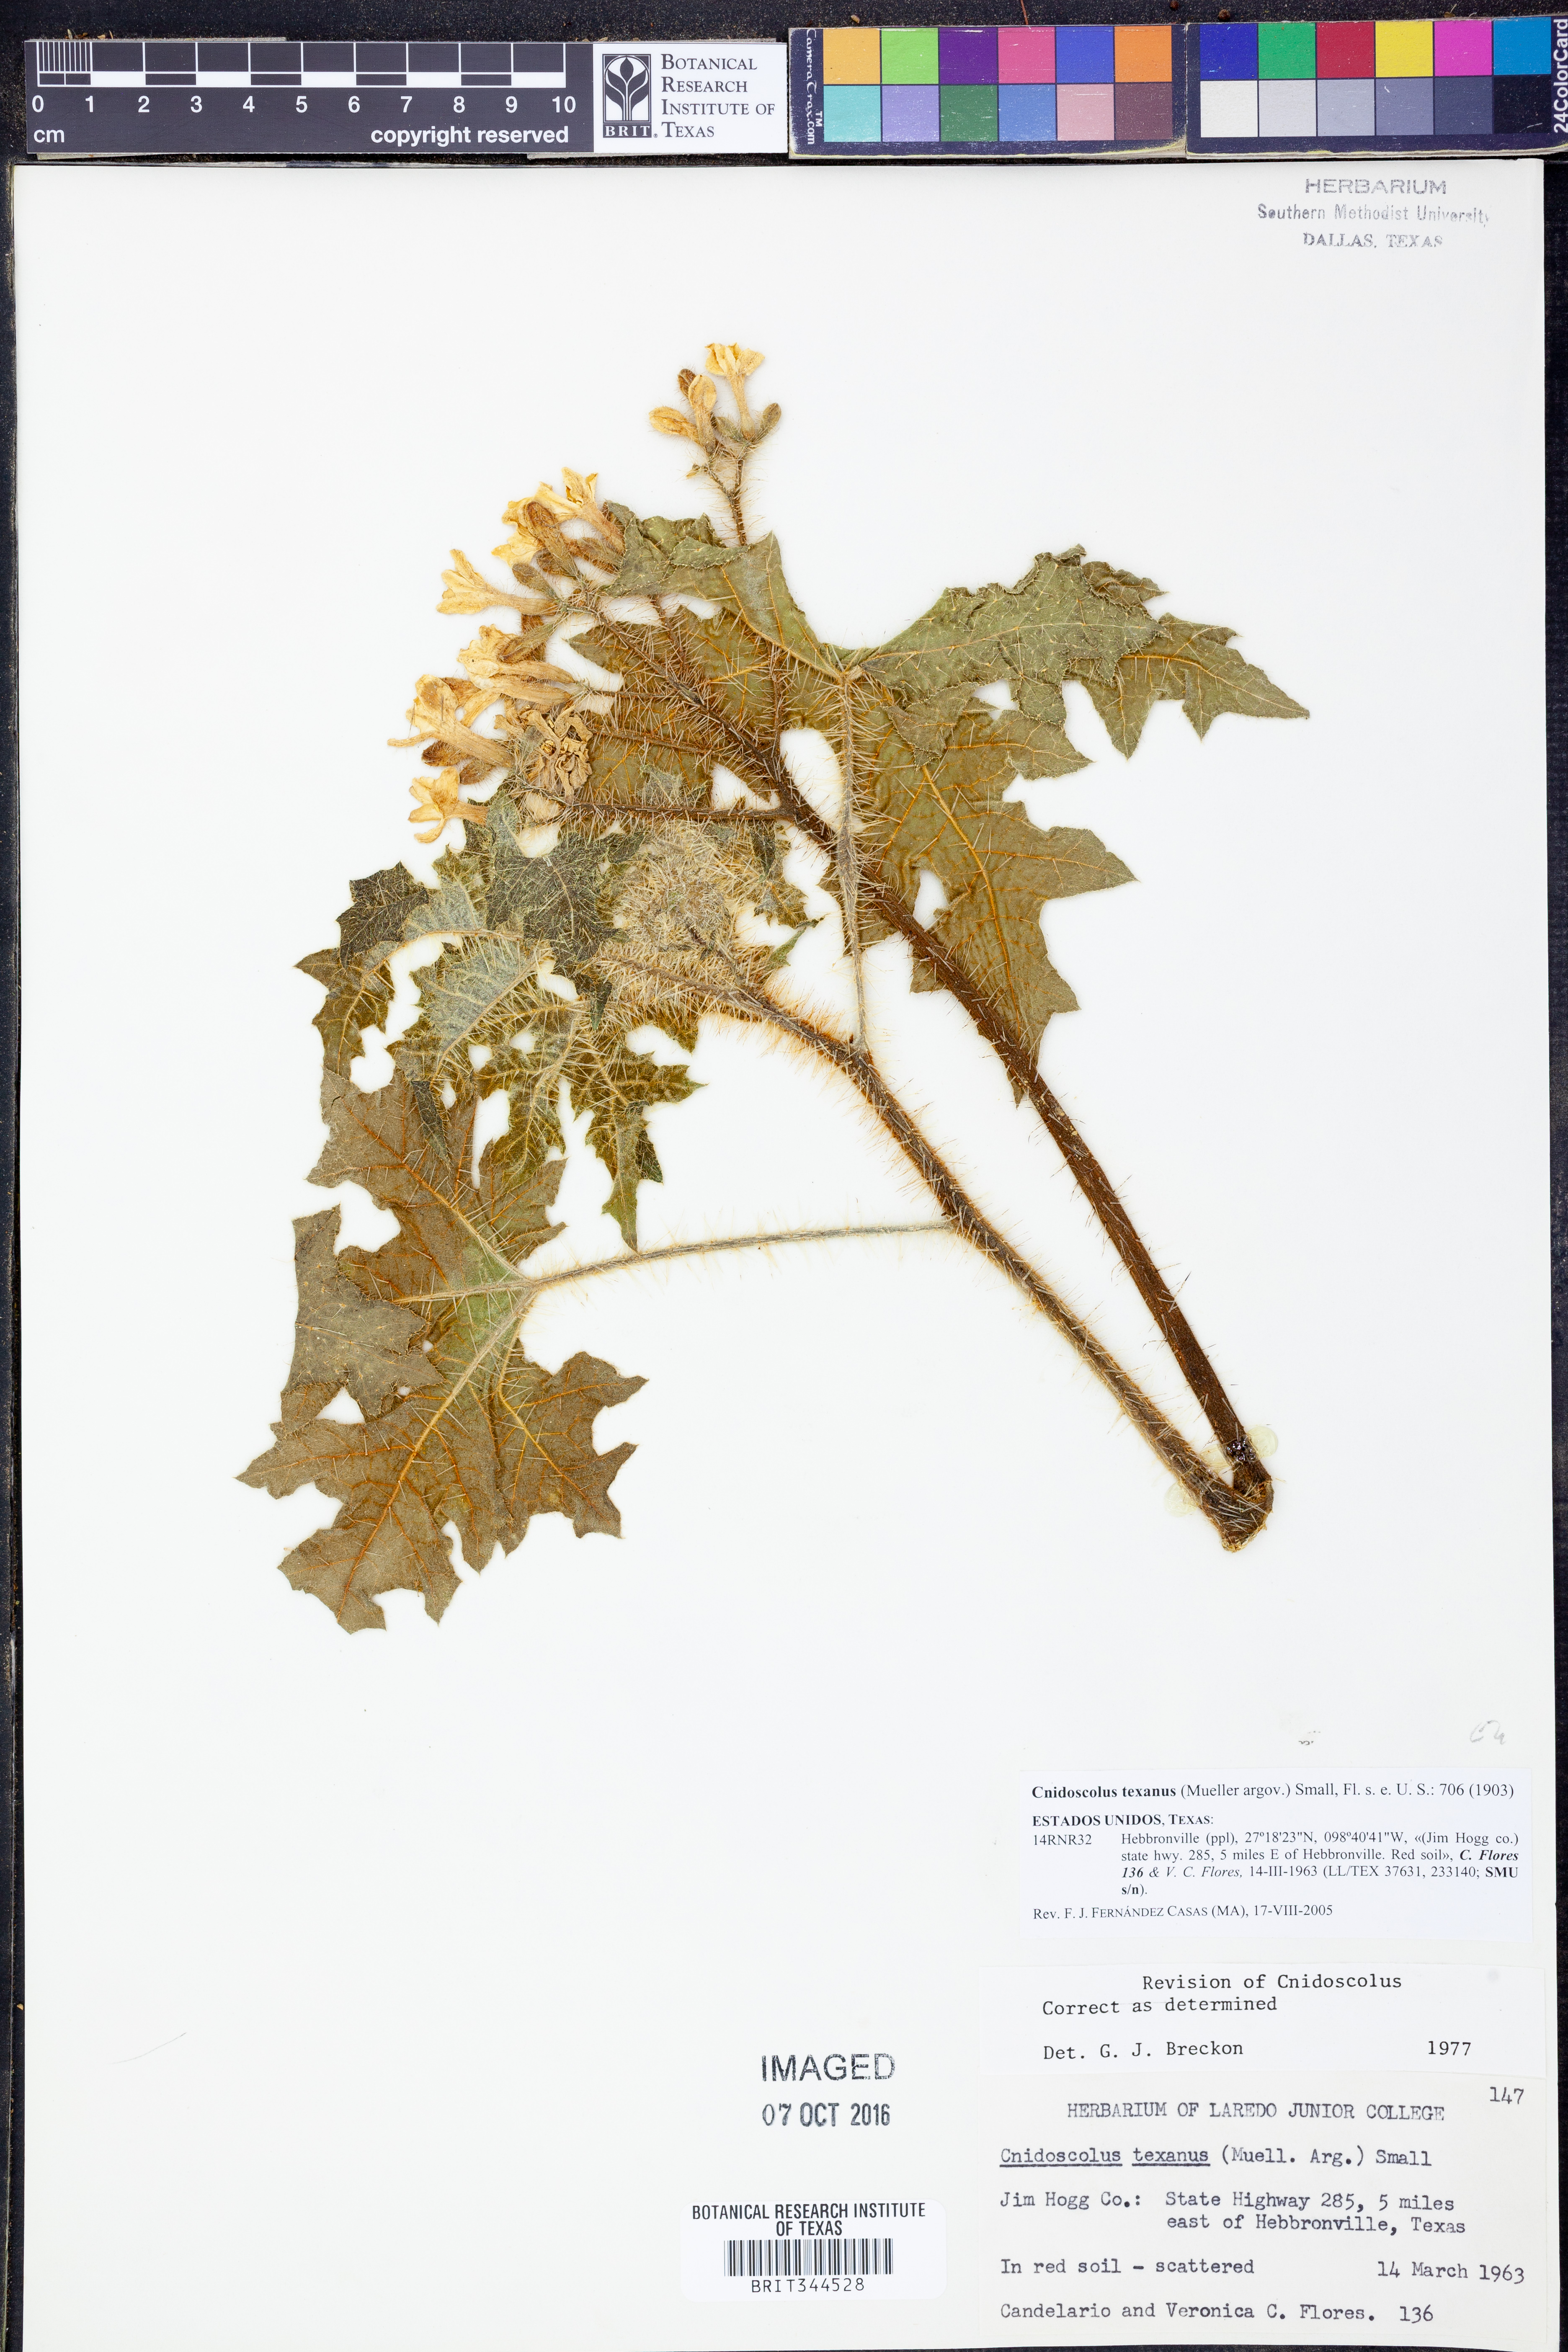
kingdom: Plantae
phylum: Tracheophyta
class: Magnoliopsida
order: Malpighiales
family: Euphorbiaceae
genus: Cnidoscolus
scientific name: Cnidoscolus texanus
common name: Texas bull-nettle
